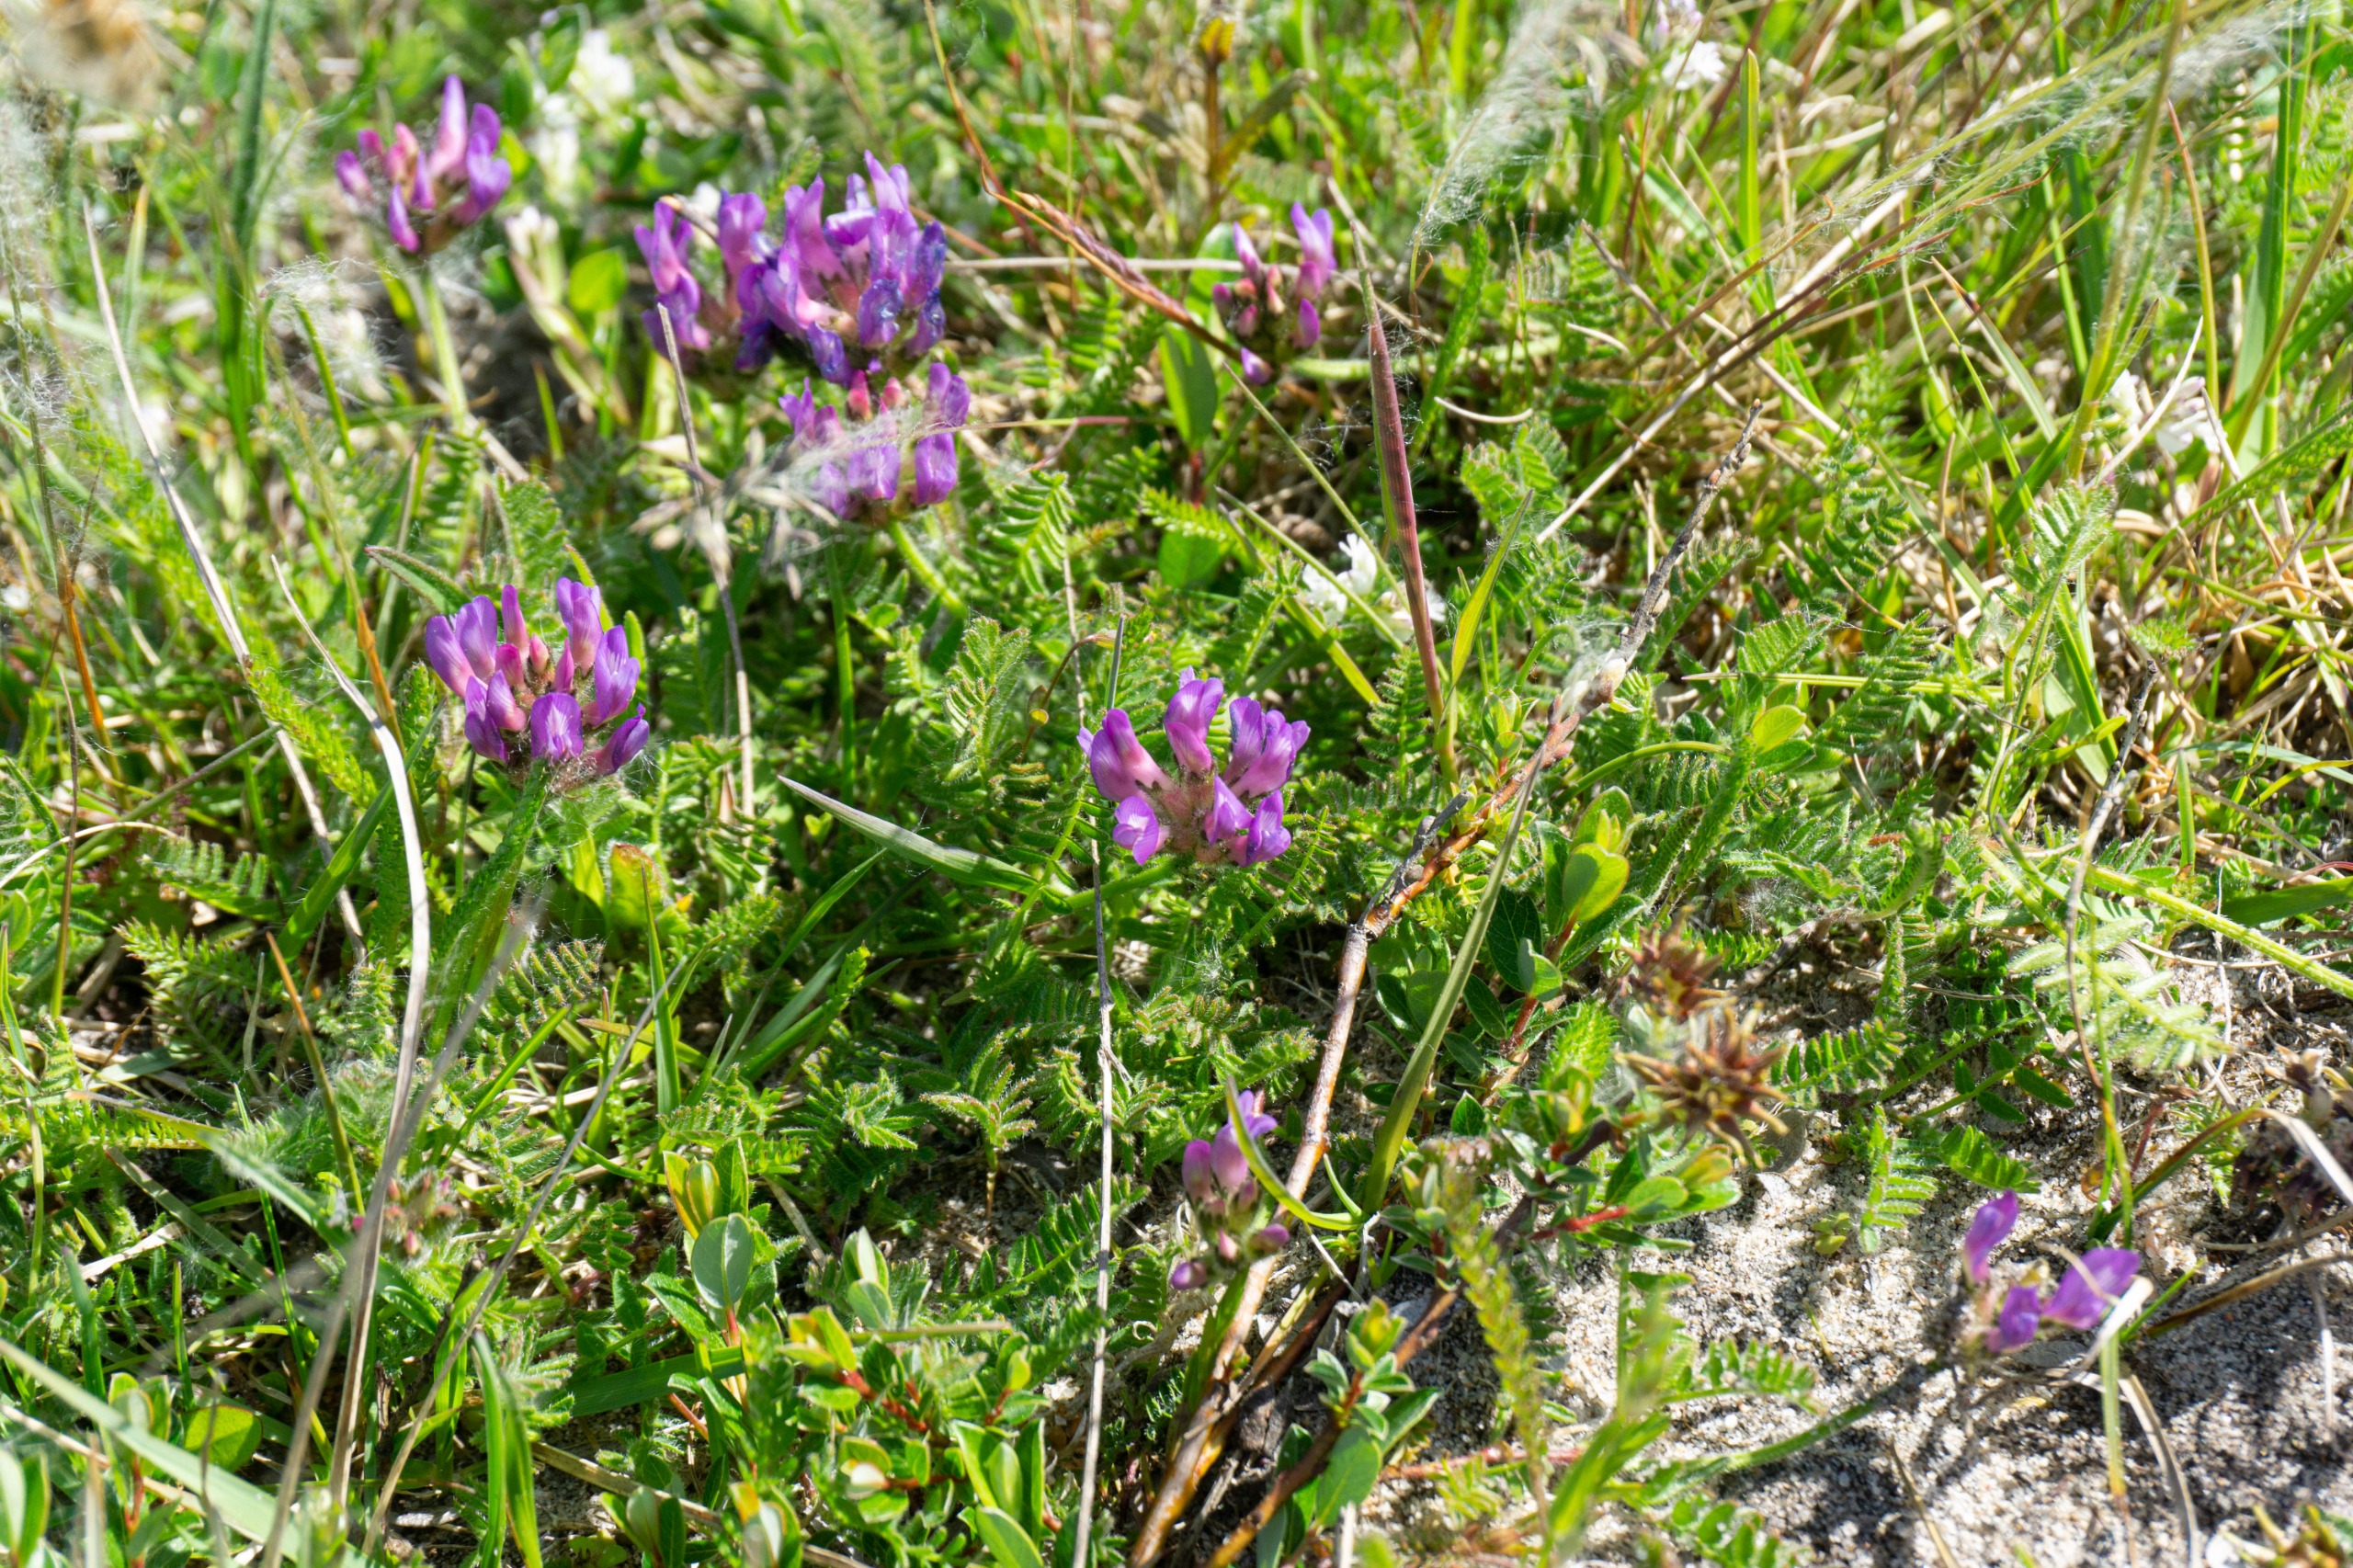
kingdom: Plantae
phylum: Tracheophyta
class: Magnoliopsida
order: Fabales
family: Fabaceae
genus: Astragalus
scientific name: Astragalus danicus
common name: Dansk astragel
